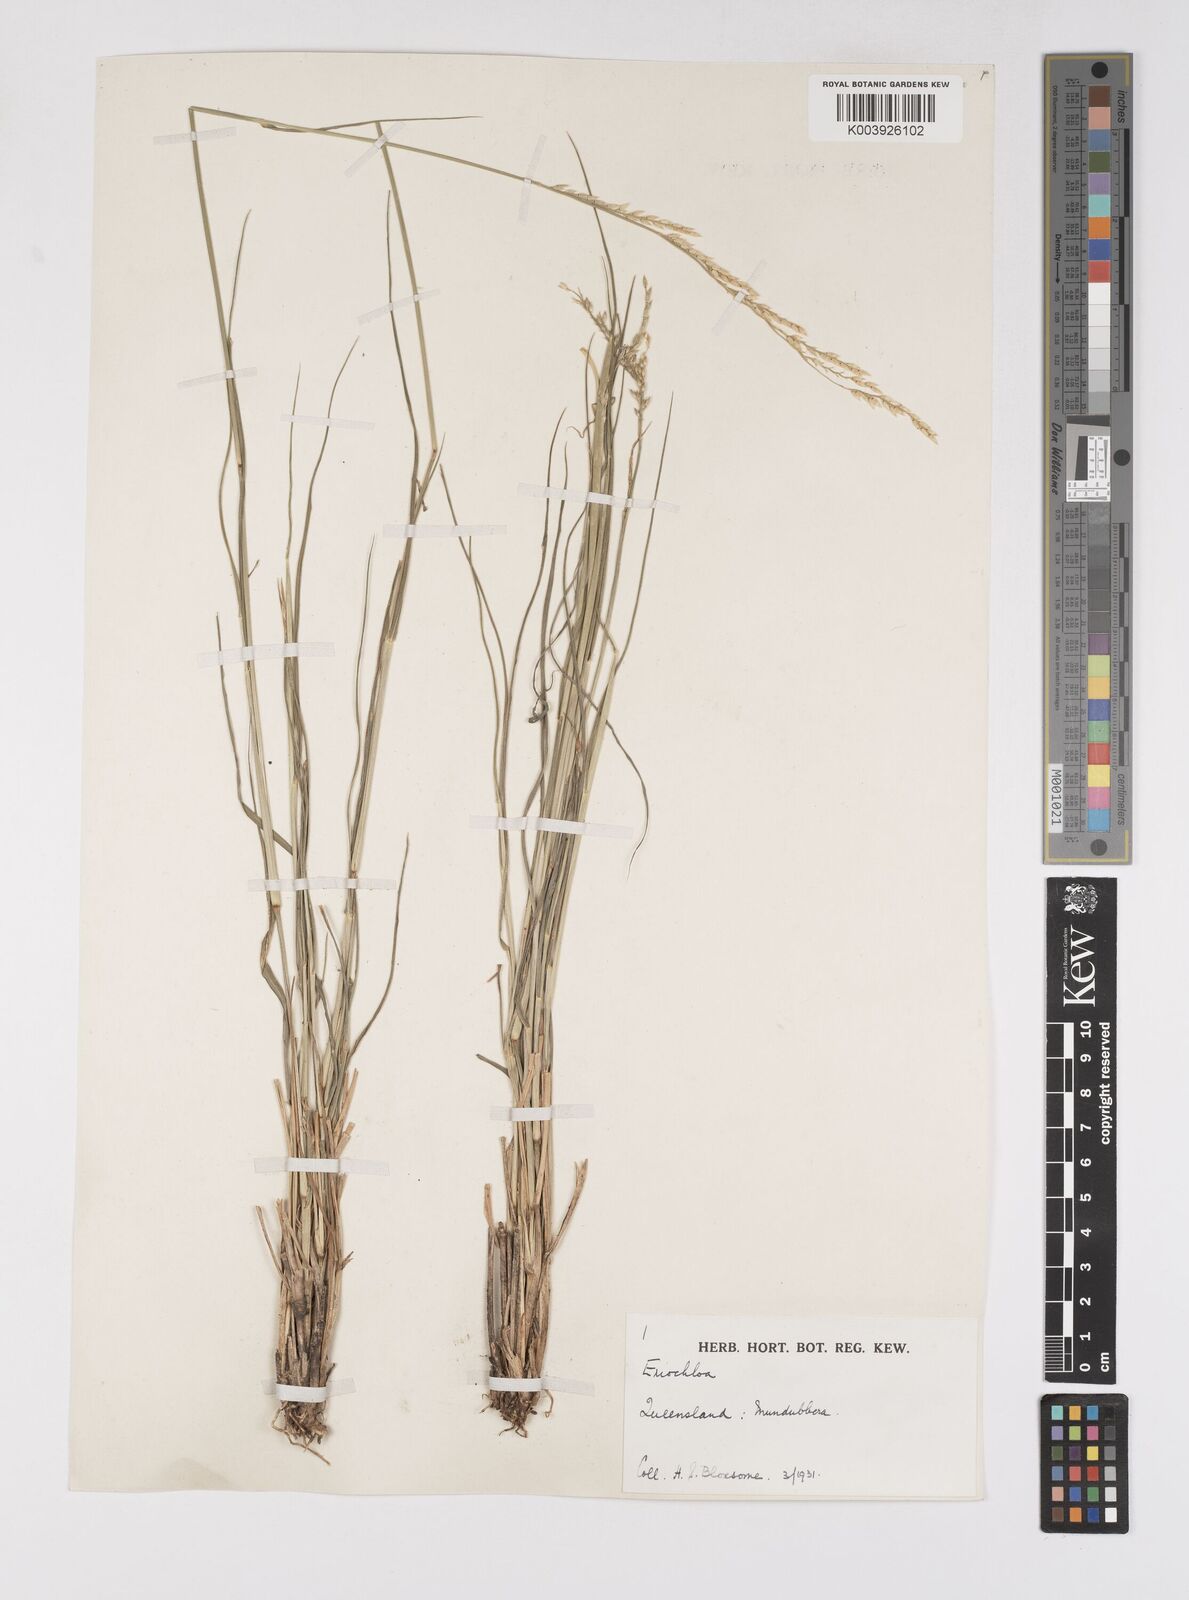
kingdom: Plantae
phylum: Tracheophyta
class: Liliopsida
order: Poales
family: Poaceae
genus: Eriochloa
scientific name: Eriochloa
